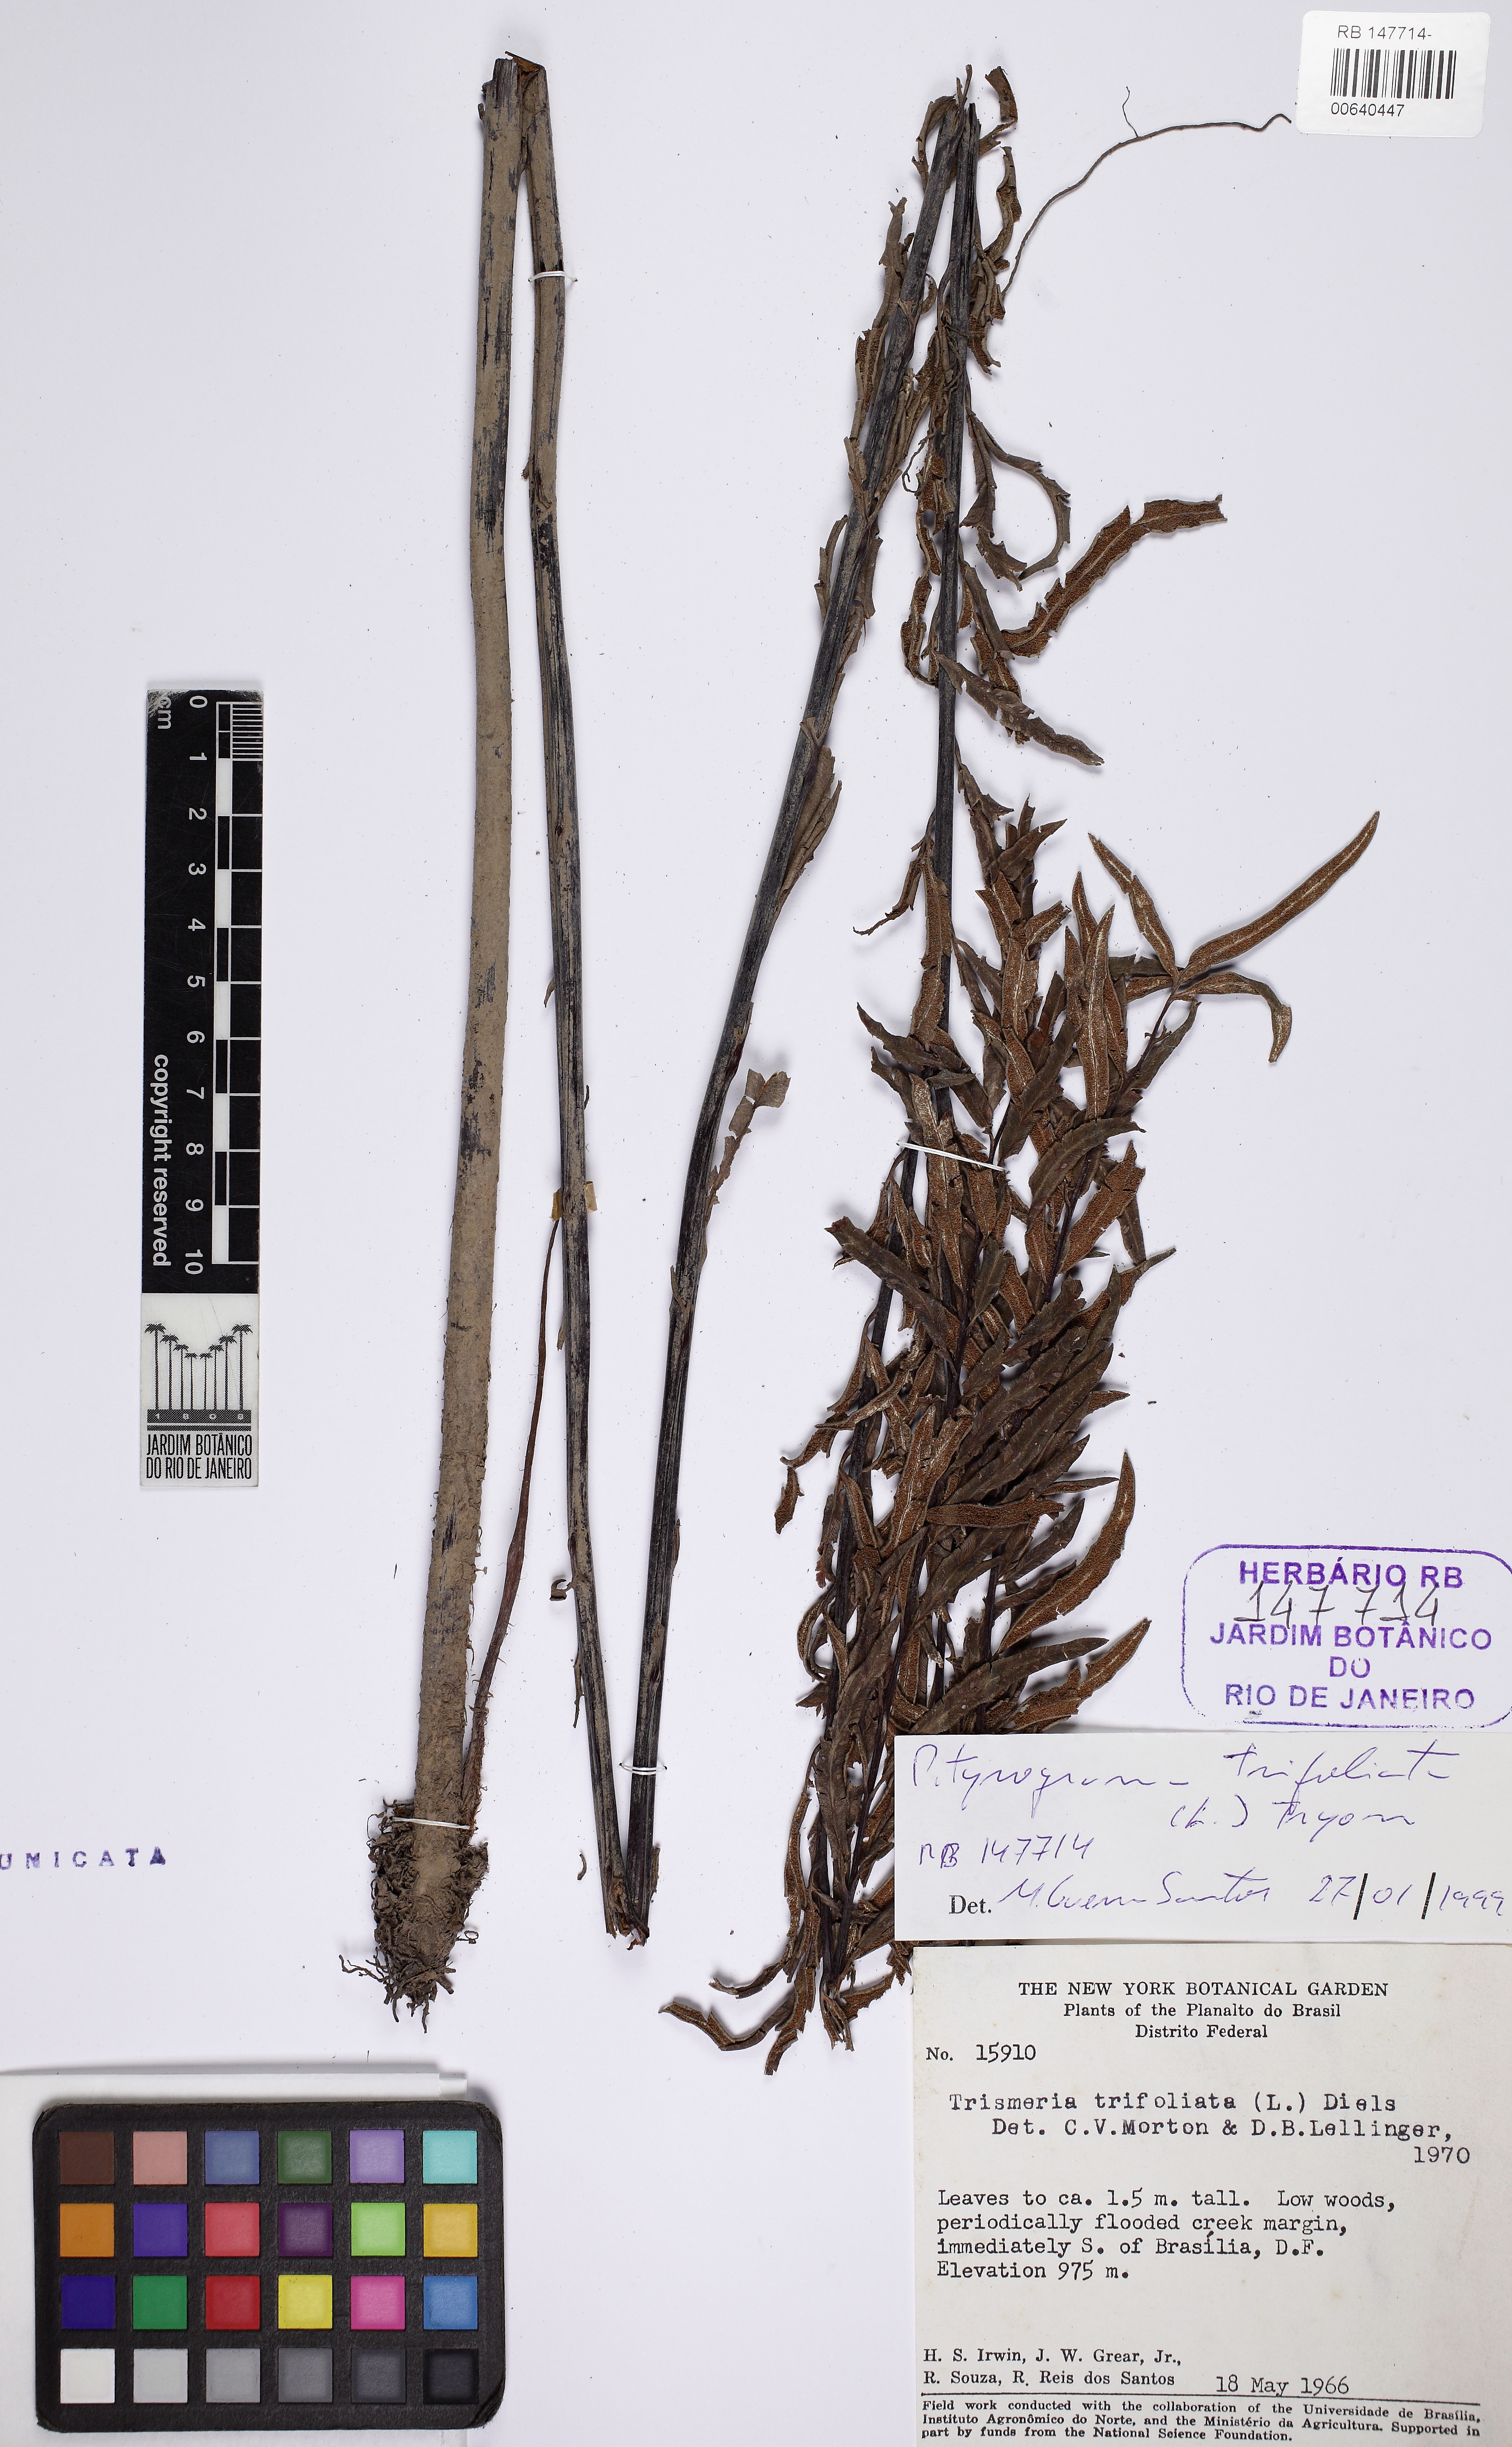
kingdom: Plantae
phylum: Tracheophyta
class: Polypodiopsida
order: Polypodiales
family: Pteridaceae
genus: Pityrogramma
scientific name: Pityrogramma trifoliata
